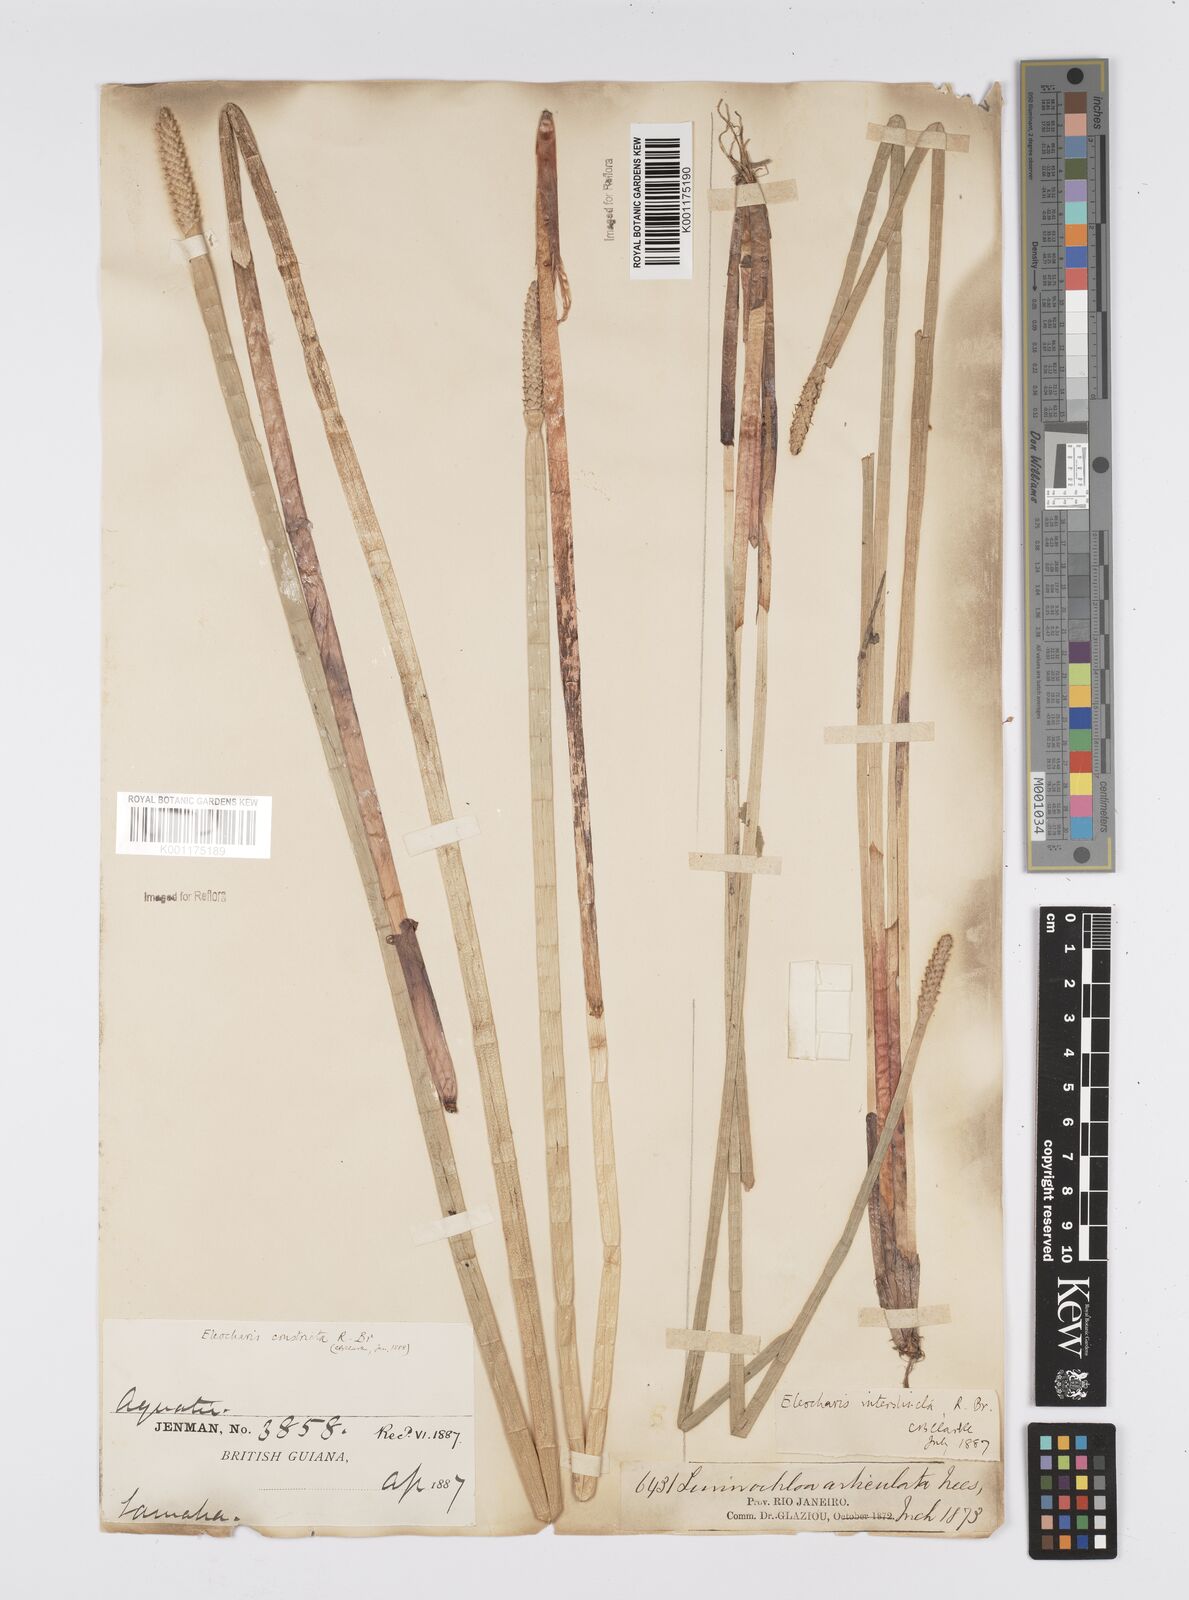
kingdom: Plantae
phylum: Tracheophyta
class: Liliopsida
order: Poales
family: Cyperaceae
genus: Eleocharis
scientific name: Eleocharis interstincta
